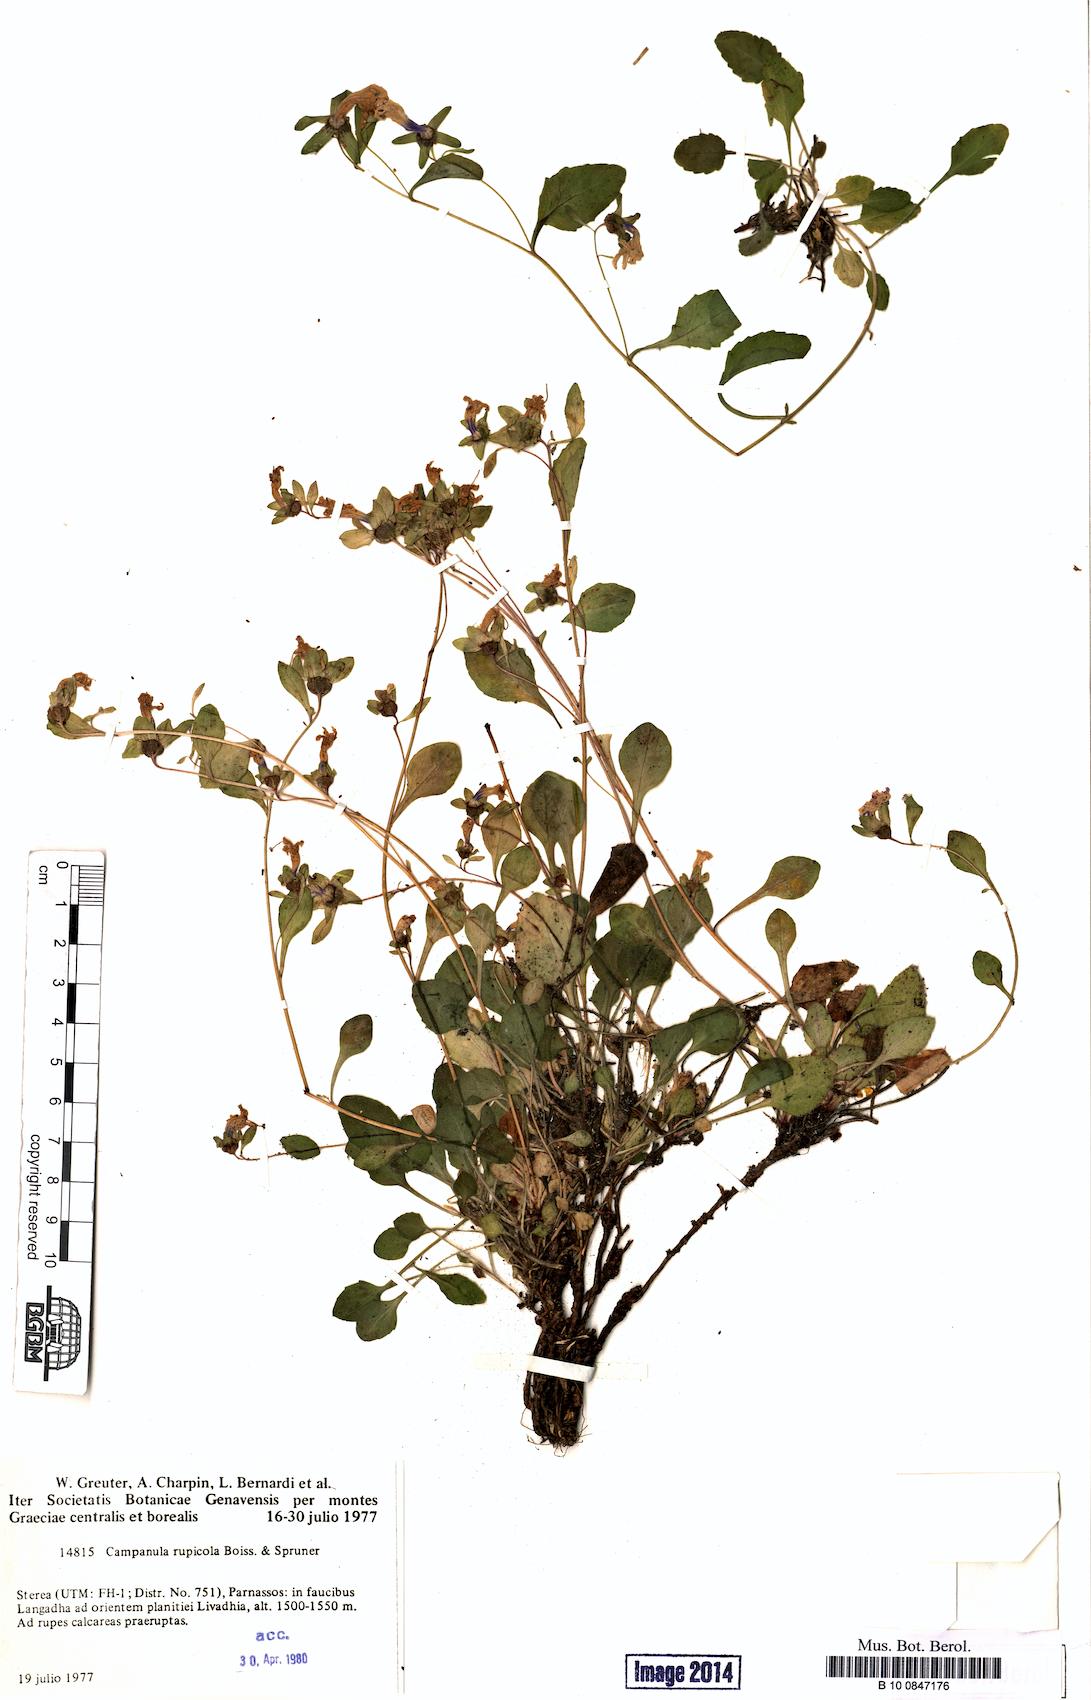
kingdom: Plantae
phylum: Tracheophyta
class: Magnoliopsida
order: Asterales
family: Campanulaceae
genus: Campanula
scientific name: Campanula rupicola
